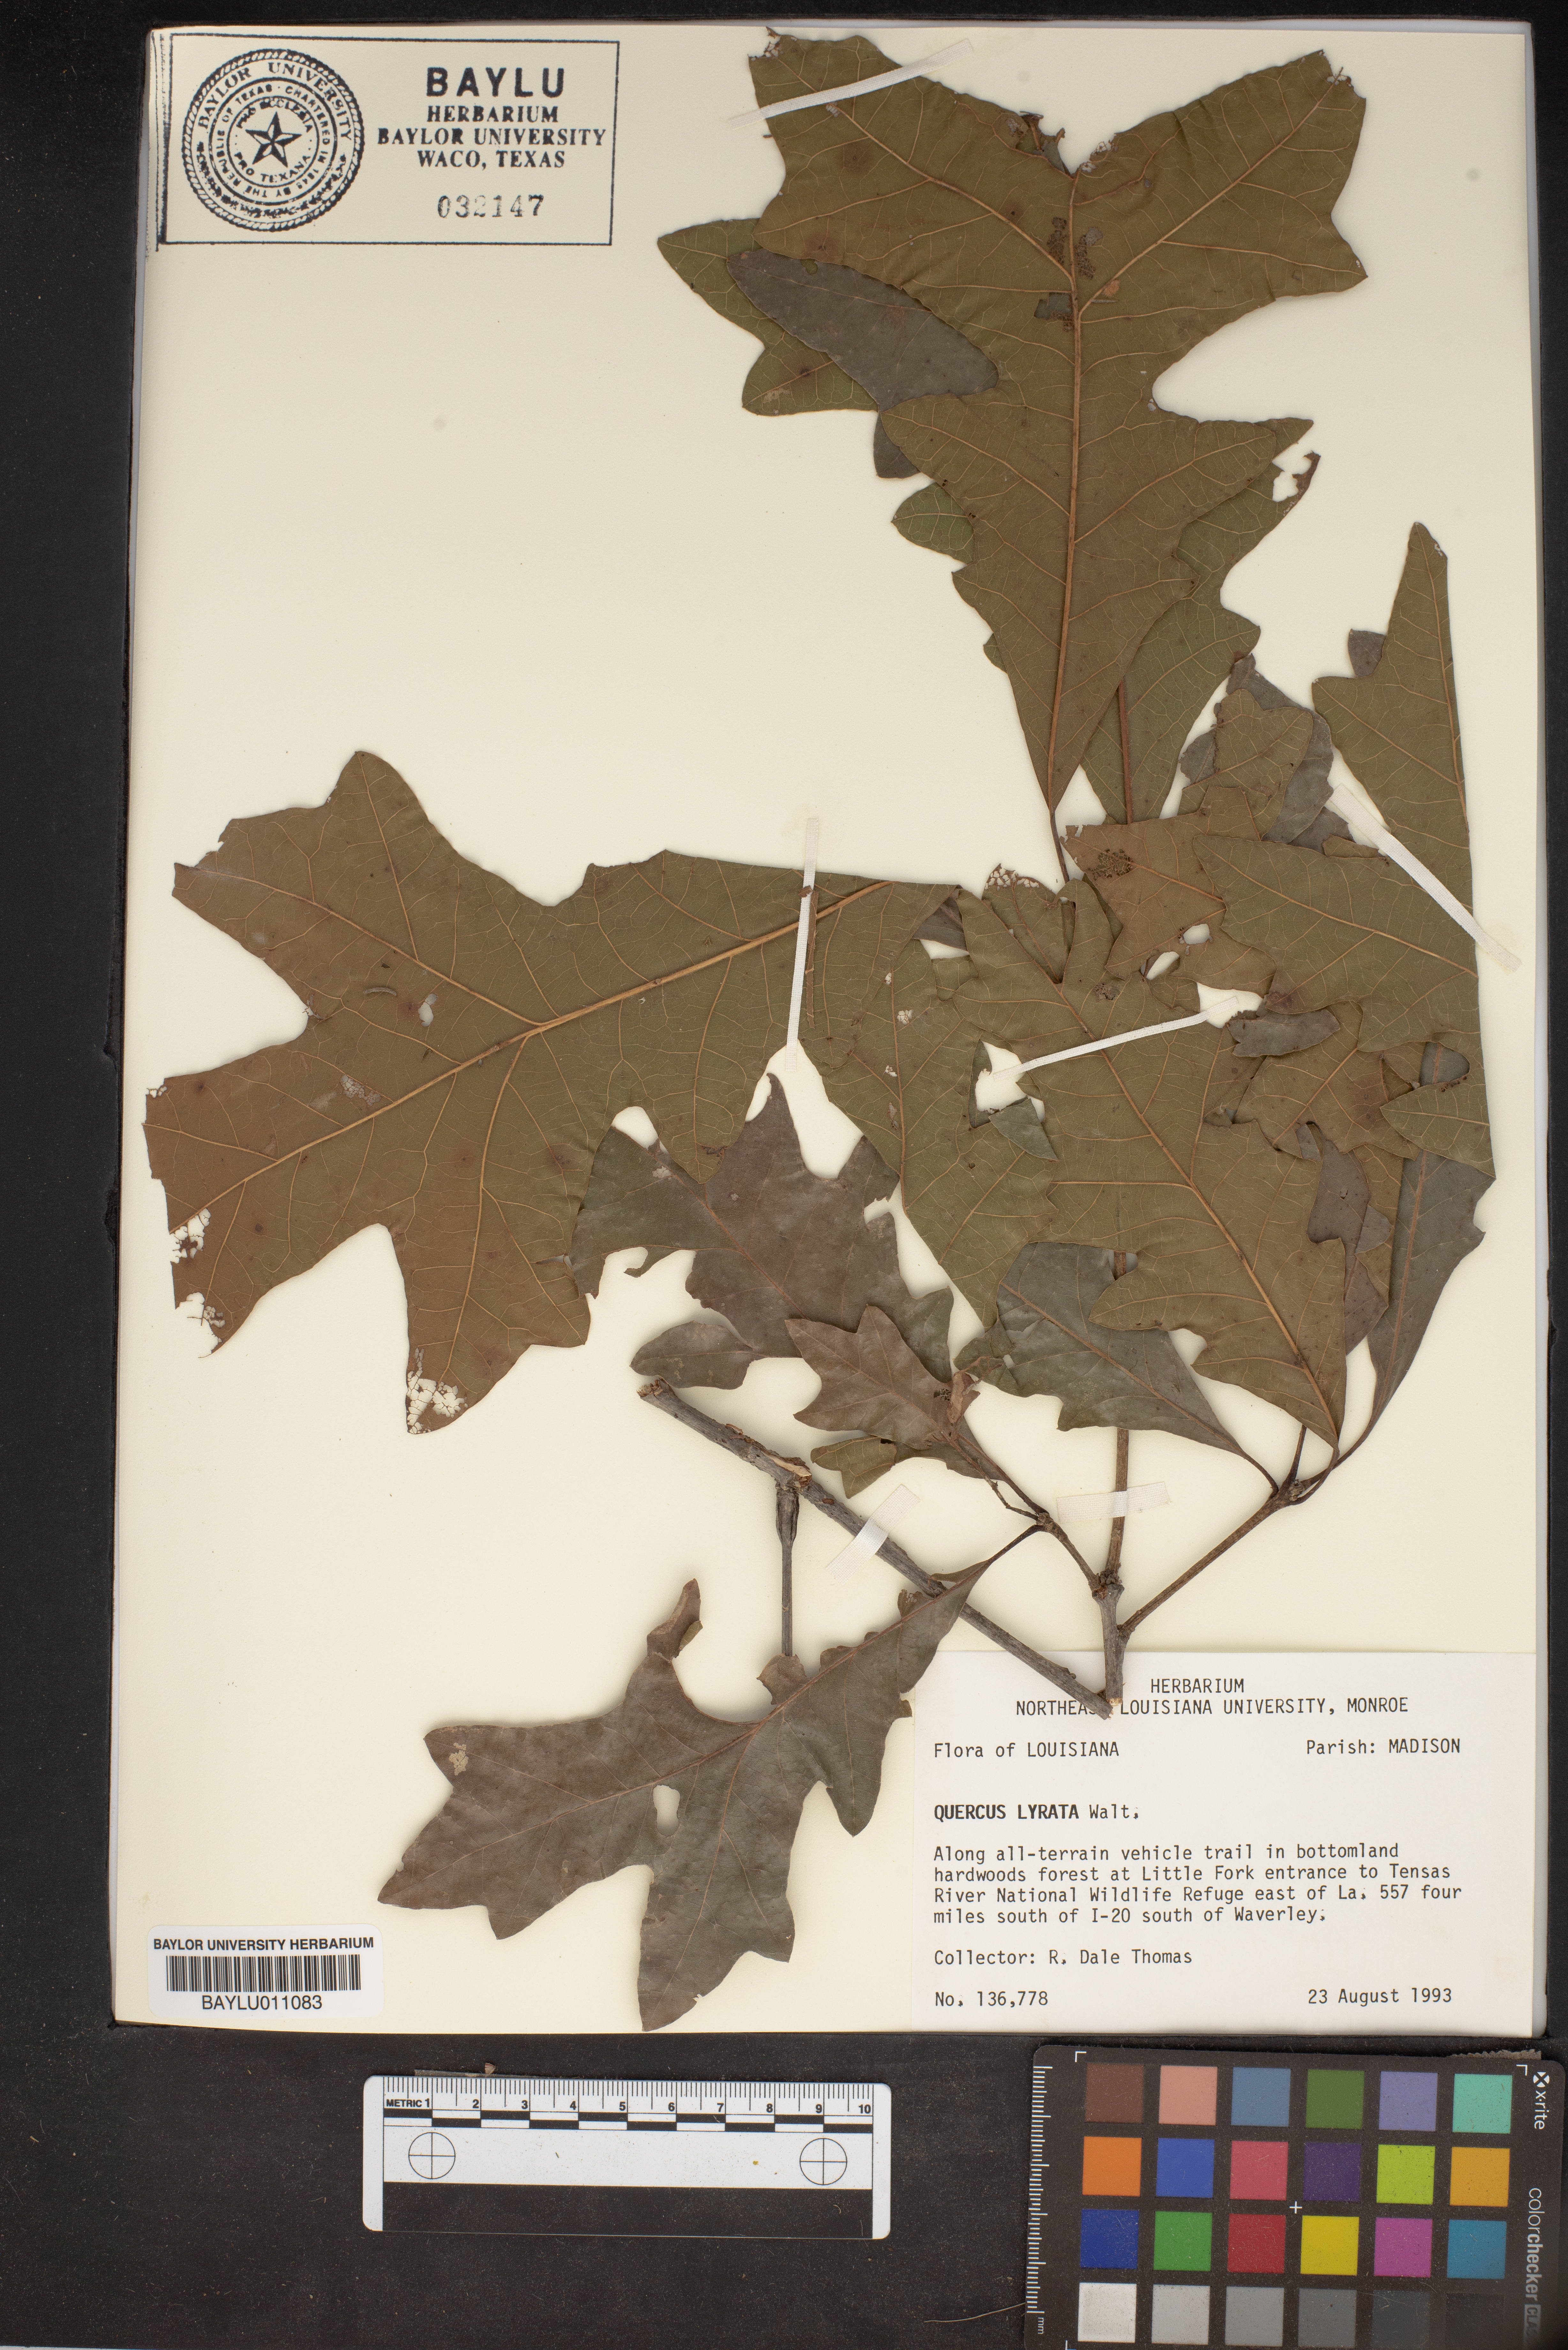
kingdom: Plantae
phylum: Tracheophyta
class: Magnoliopsida
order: Fagales
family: Fagaceae
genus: Quercus
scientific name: Quercus lyrata
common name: Overcup oak
